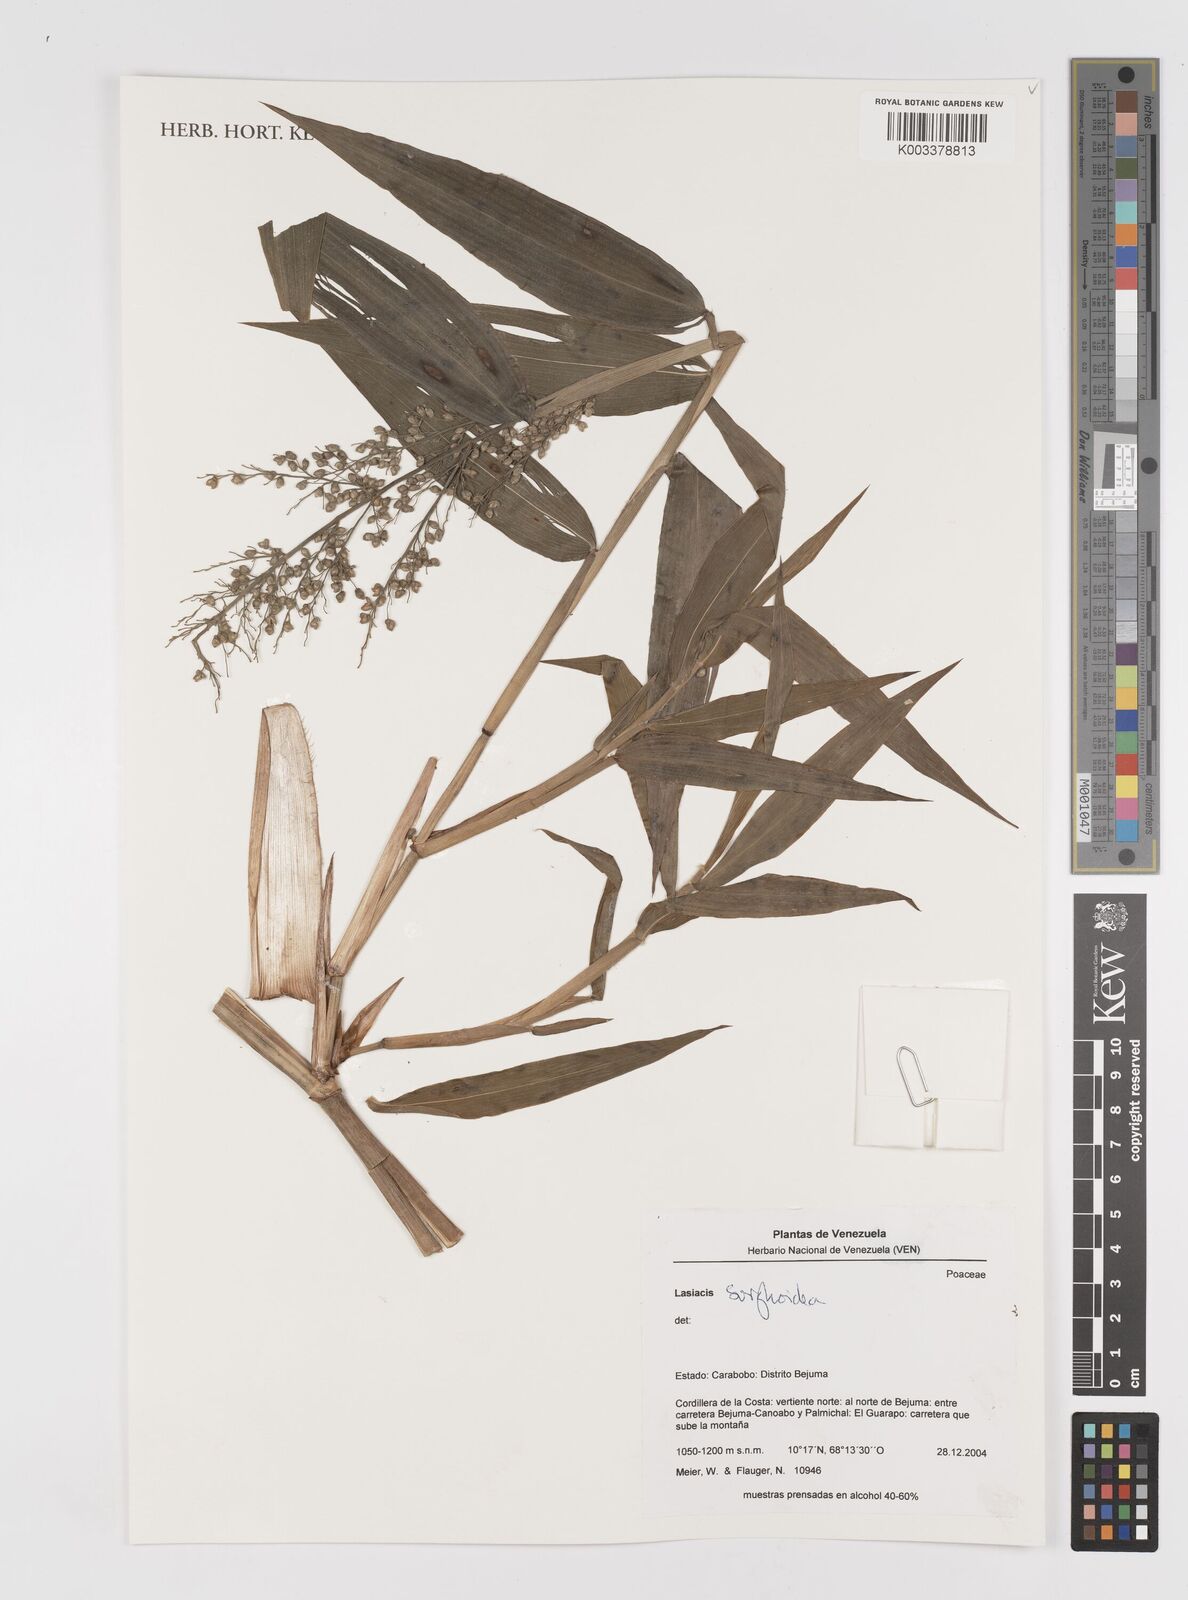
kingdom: Plantae
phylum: Tracheophyta
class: Liliopsida
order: Poales
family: Poaceae
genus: Lasiacis
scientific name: Lasiacis
